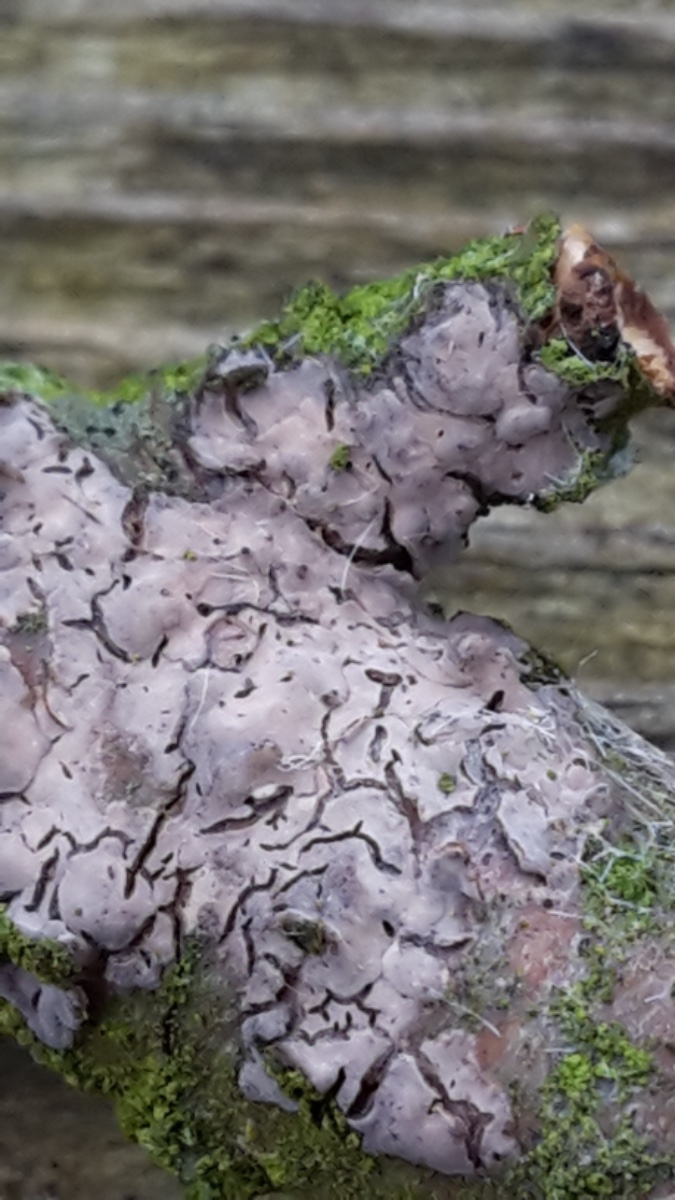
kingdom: Fungi
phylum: Basidiomycota
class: Agaricomycetes
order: Russulales
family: Peniophoraceae
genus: Peniophora
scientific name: Peniophora quercina
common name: ege-voksskind
